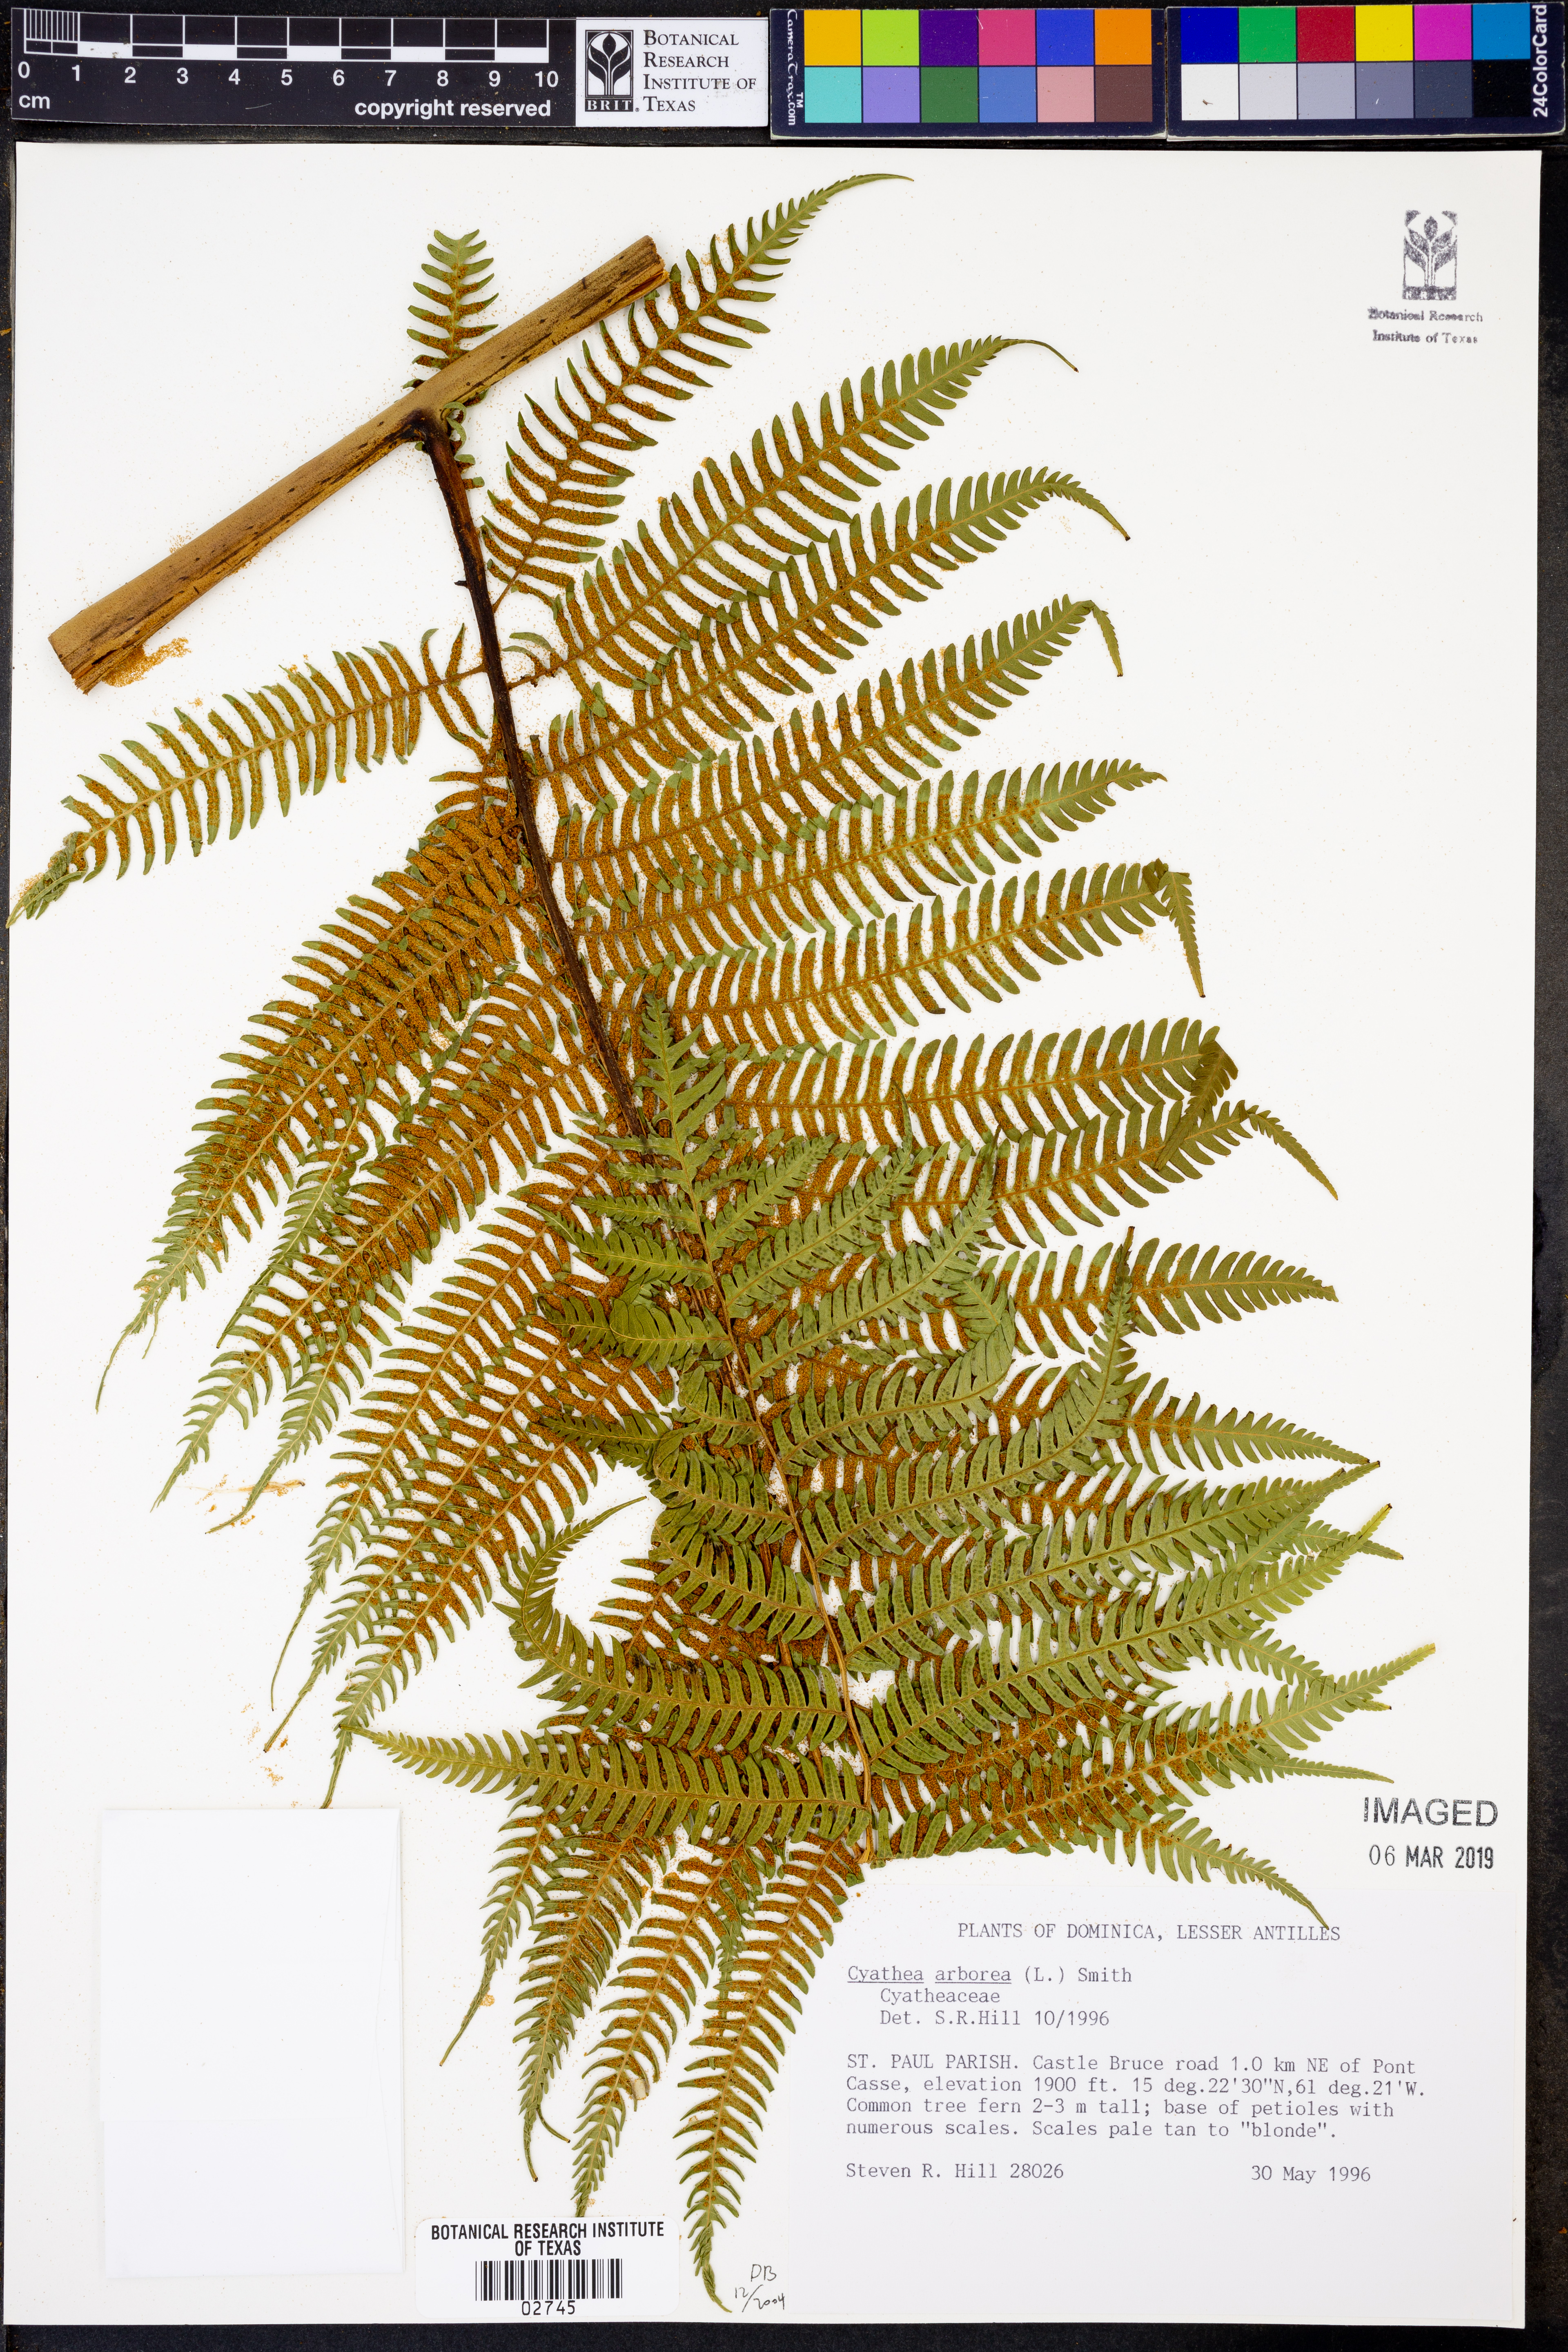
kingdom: Plantae
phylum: Tracheophyta
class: Polypodiopsida
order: Cyatheales
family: Cyatheaceae
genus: Cyathea
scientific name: Cyathea arborea
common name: West indian treefern
